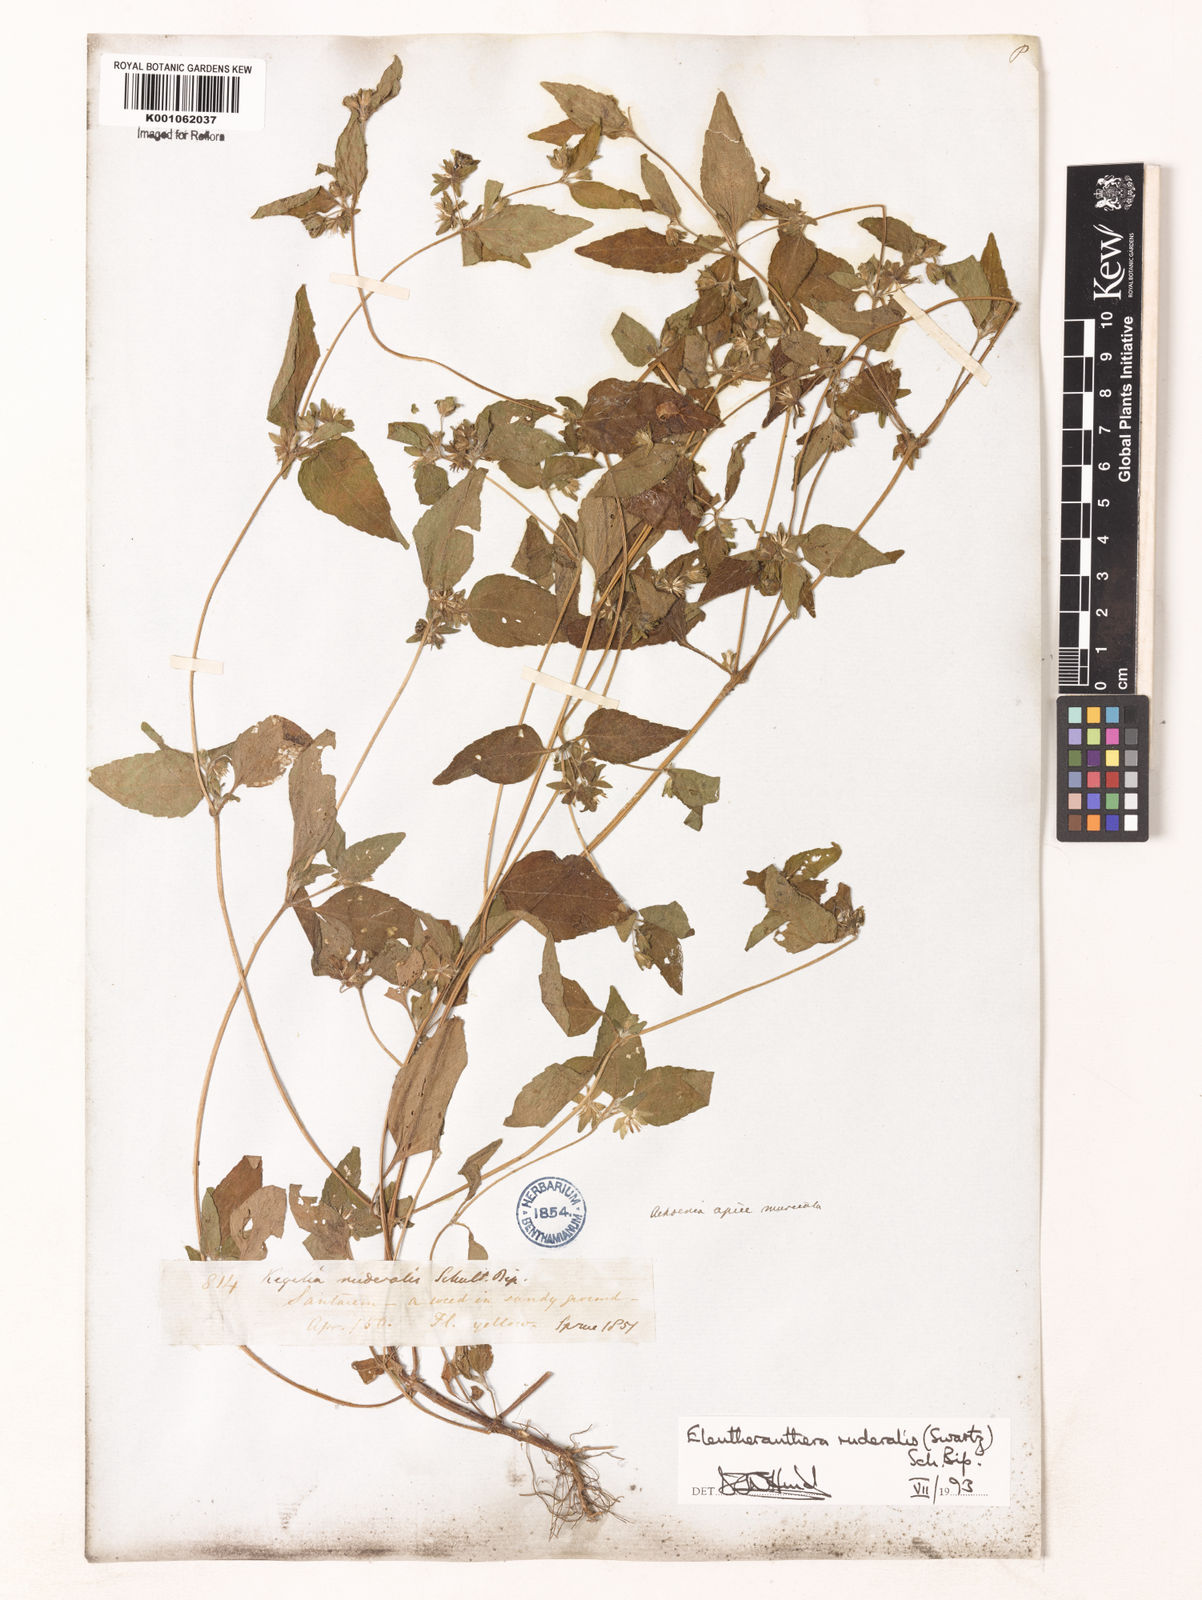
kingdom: Plantae
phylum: Tracheophyta
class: Magnoliopsida
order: Asterales
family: Asteraceae
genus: Eleutheranthera
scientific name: Eleutheranthera ruderalis
